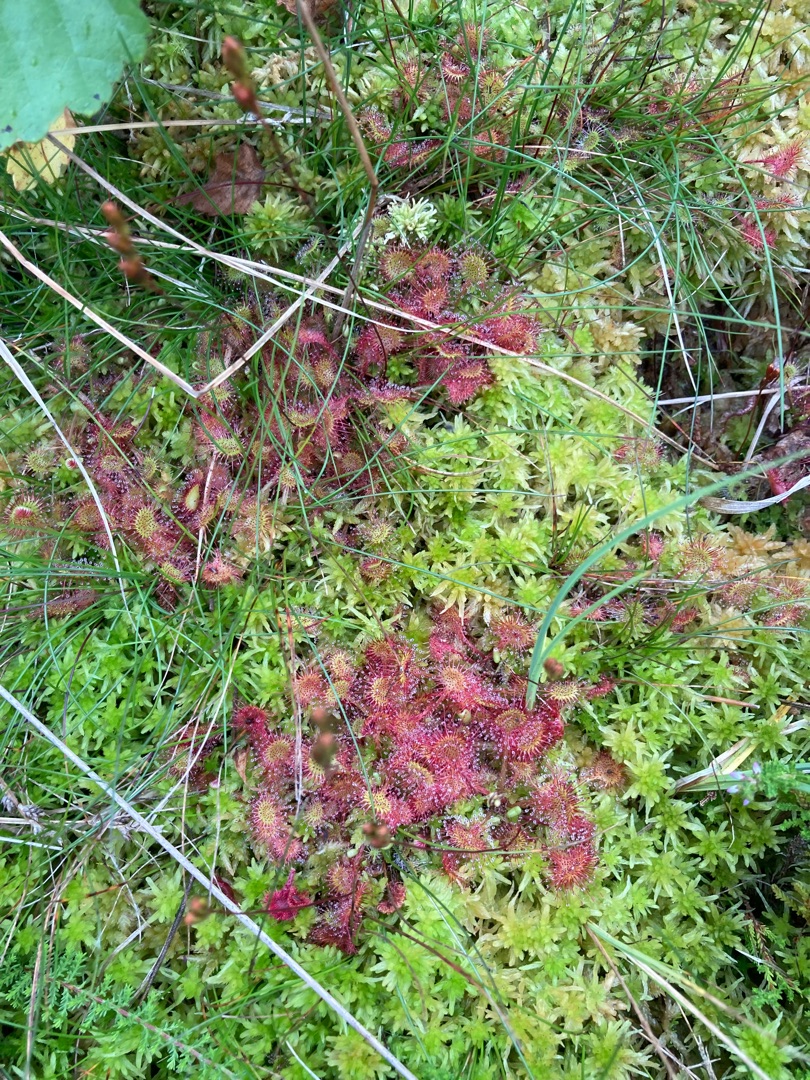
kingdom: Plantae
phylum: Tracheophyta
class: Magnoliopsida
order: Caryophyllales
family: Droseraceae
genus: Drosera
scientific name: Drosera rotundifolia
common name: Rundbladet soldug
